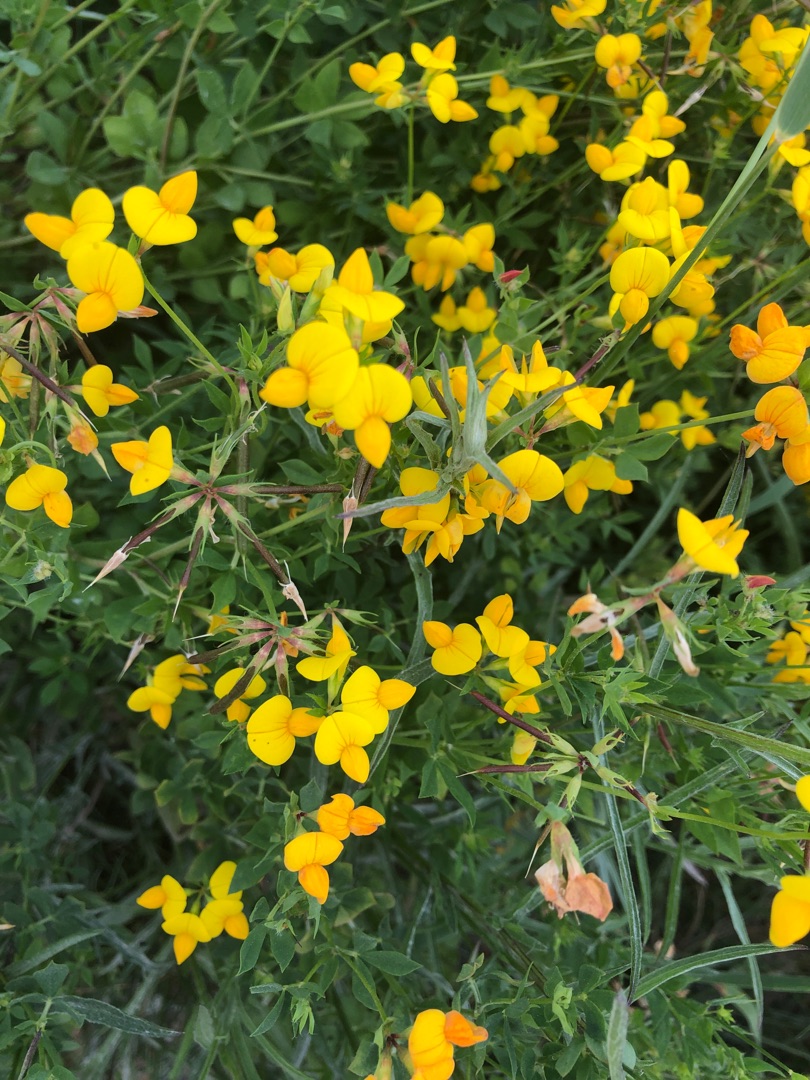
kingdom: Plantae
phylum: Tracheophyta
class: Magnoliopsida
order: Fabales
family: Fabaceae
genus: Lotus
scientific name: Lotus corniculatus
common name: Almindelig kællingetand
